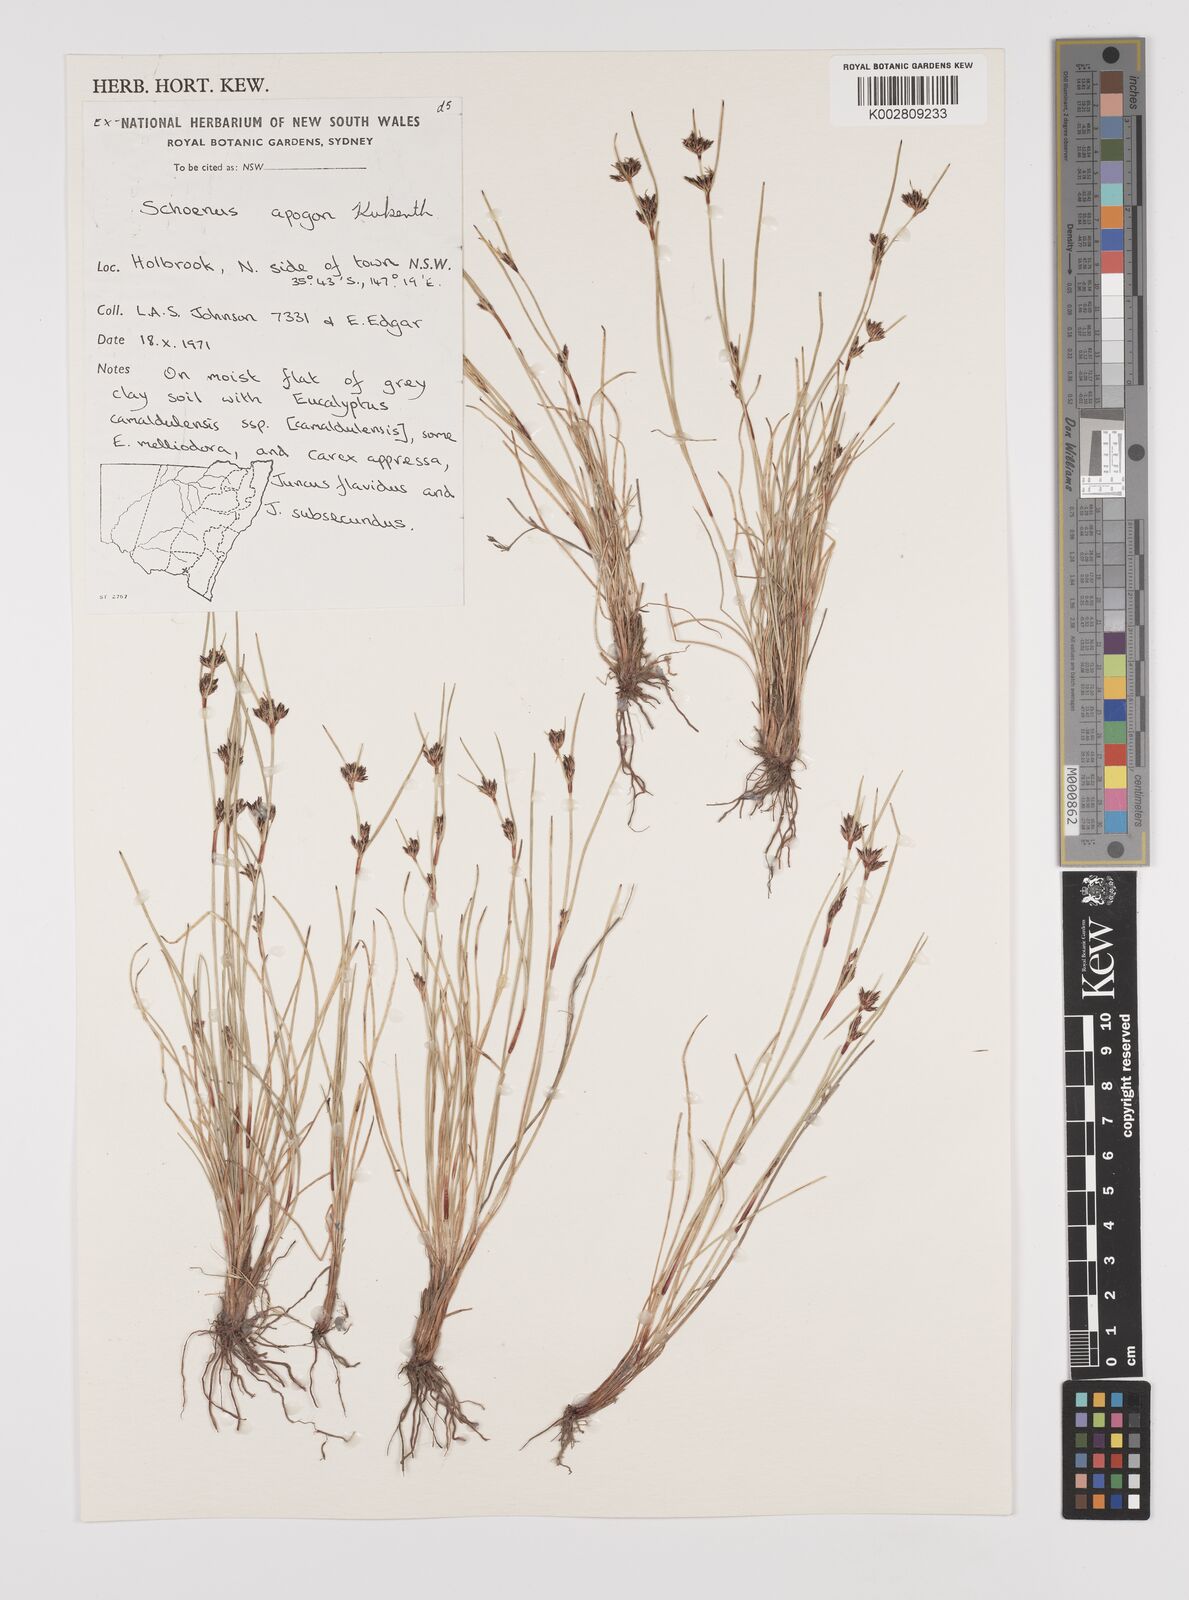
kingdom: Plantae
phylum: Tracheophyta
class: Liliopsida
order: Poales
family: Cyperaceae
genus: Schoenus
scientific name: Schoenus apogon
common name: Smooth bogrush
